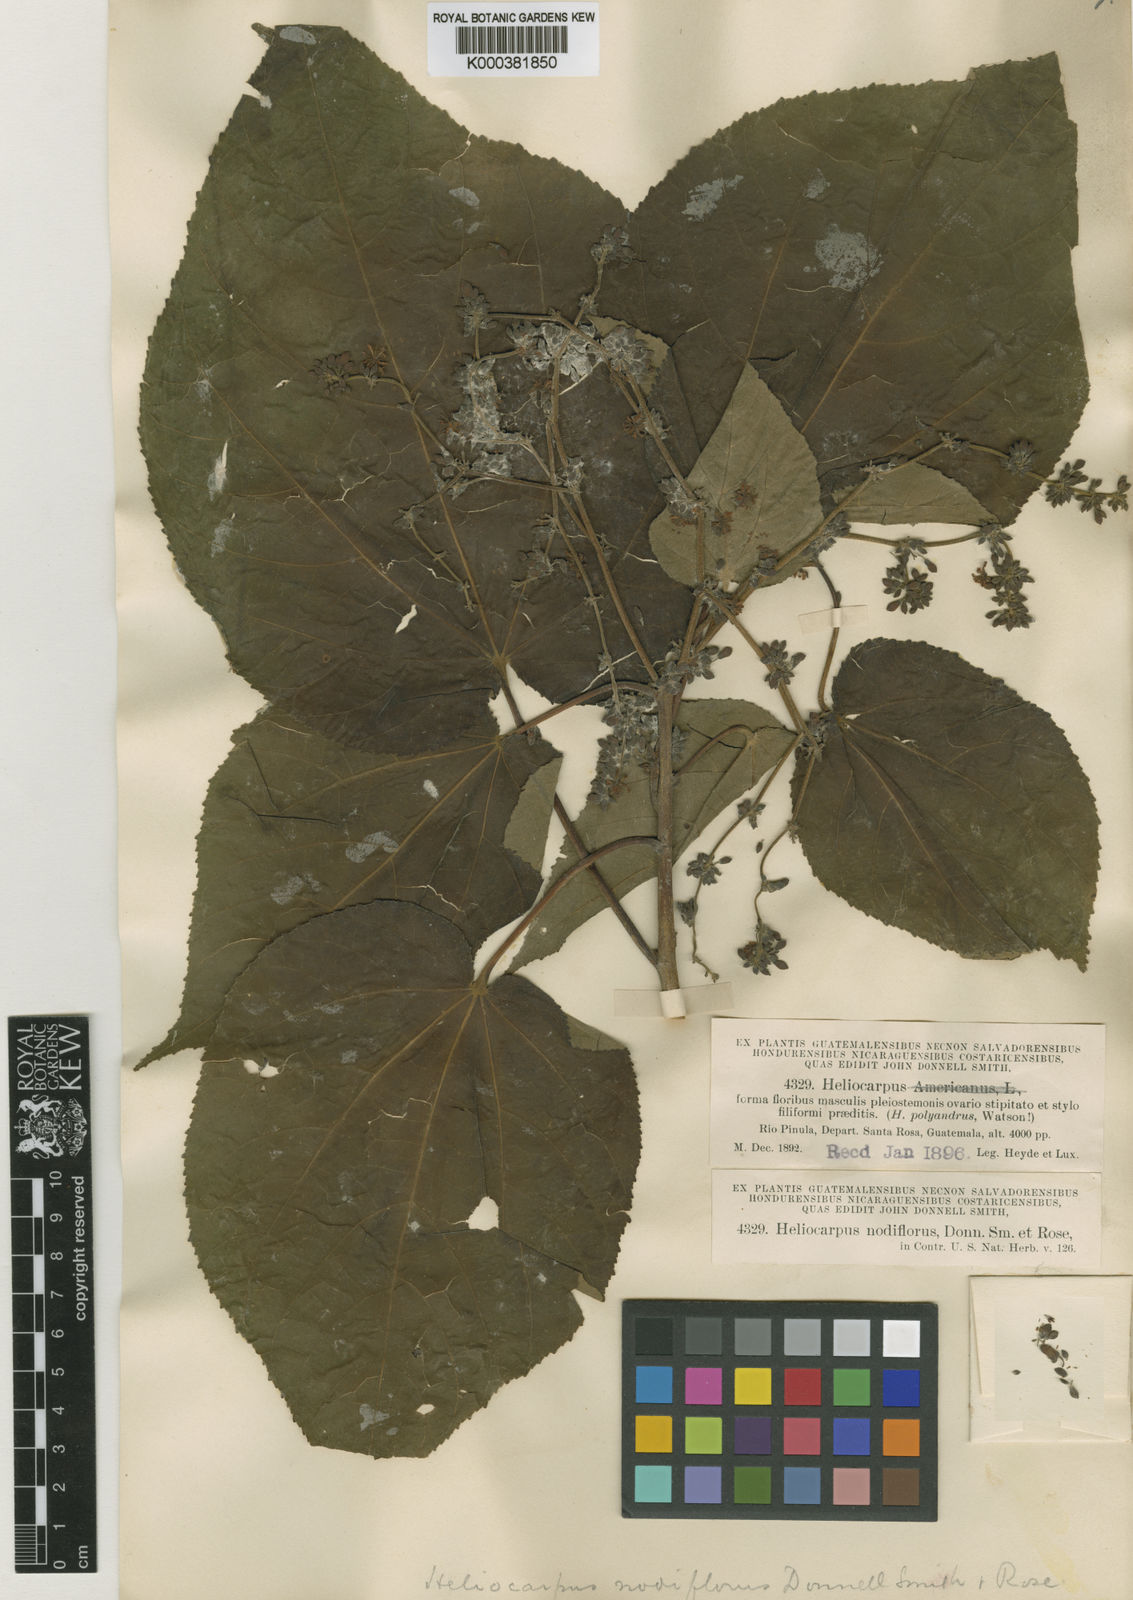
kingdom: Plantae
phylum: Tracheophyta
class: Magnoliopsida
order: Malvales
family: Malvaceae
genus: Heliocarpus
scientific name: Heliocarpus nodiflorus
